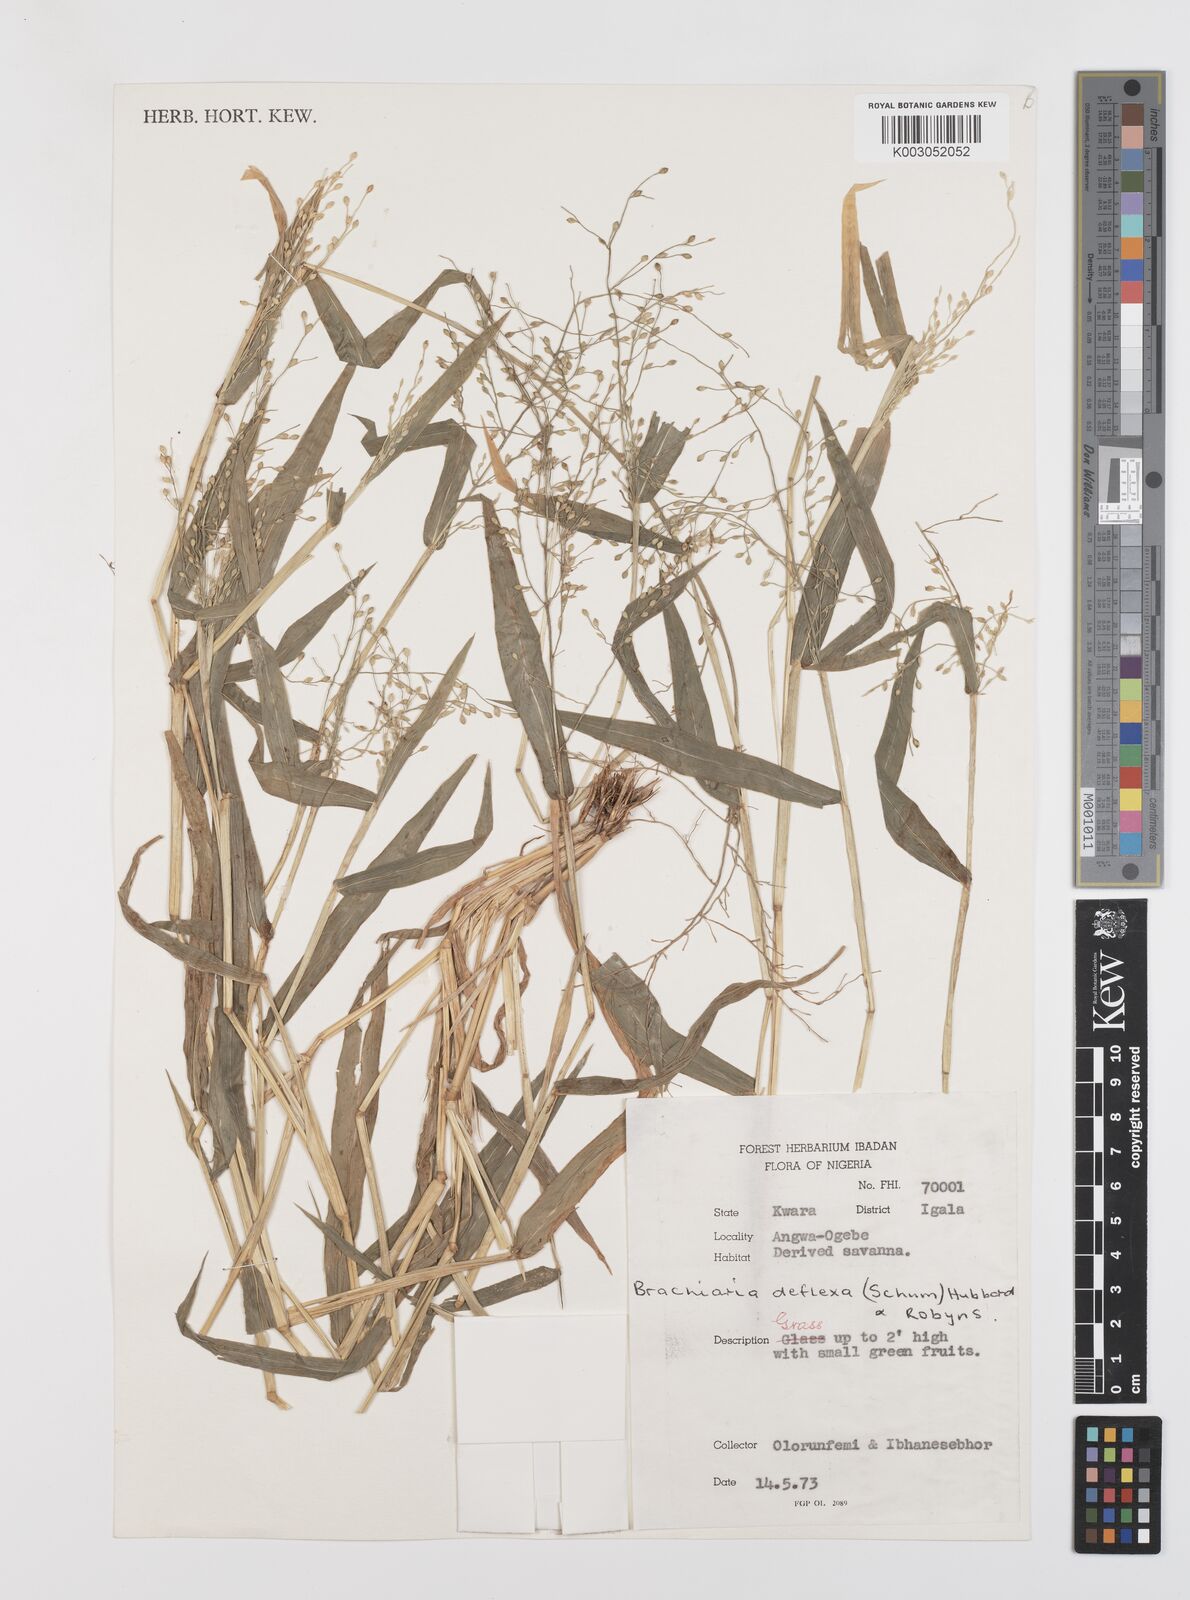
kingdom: Plantae
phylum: Tracheophyta
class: Liliopsida
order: Poales
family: Poaceae
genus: Urochloa
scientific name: Urochloa deflexa
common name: Guinea millet
